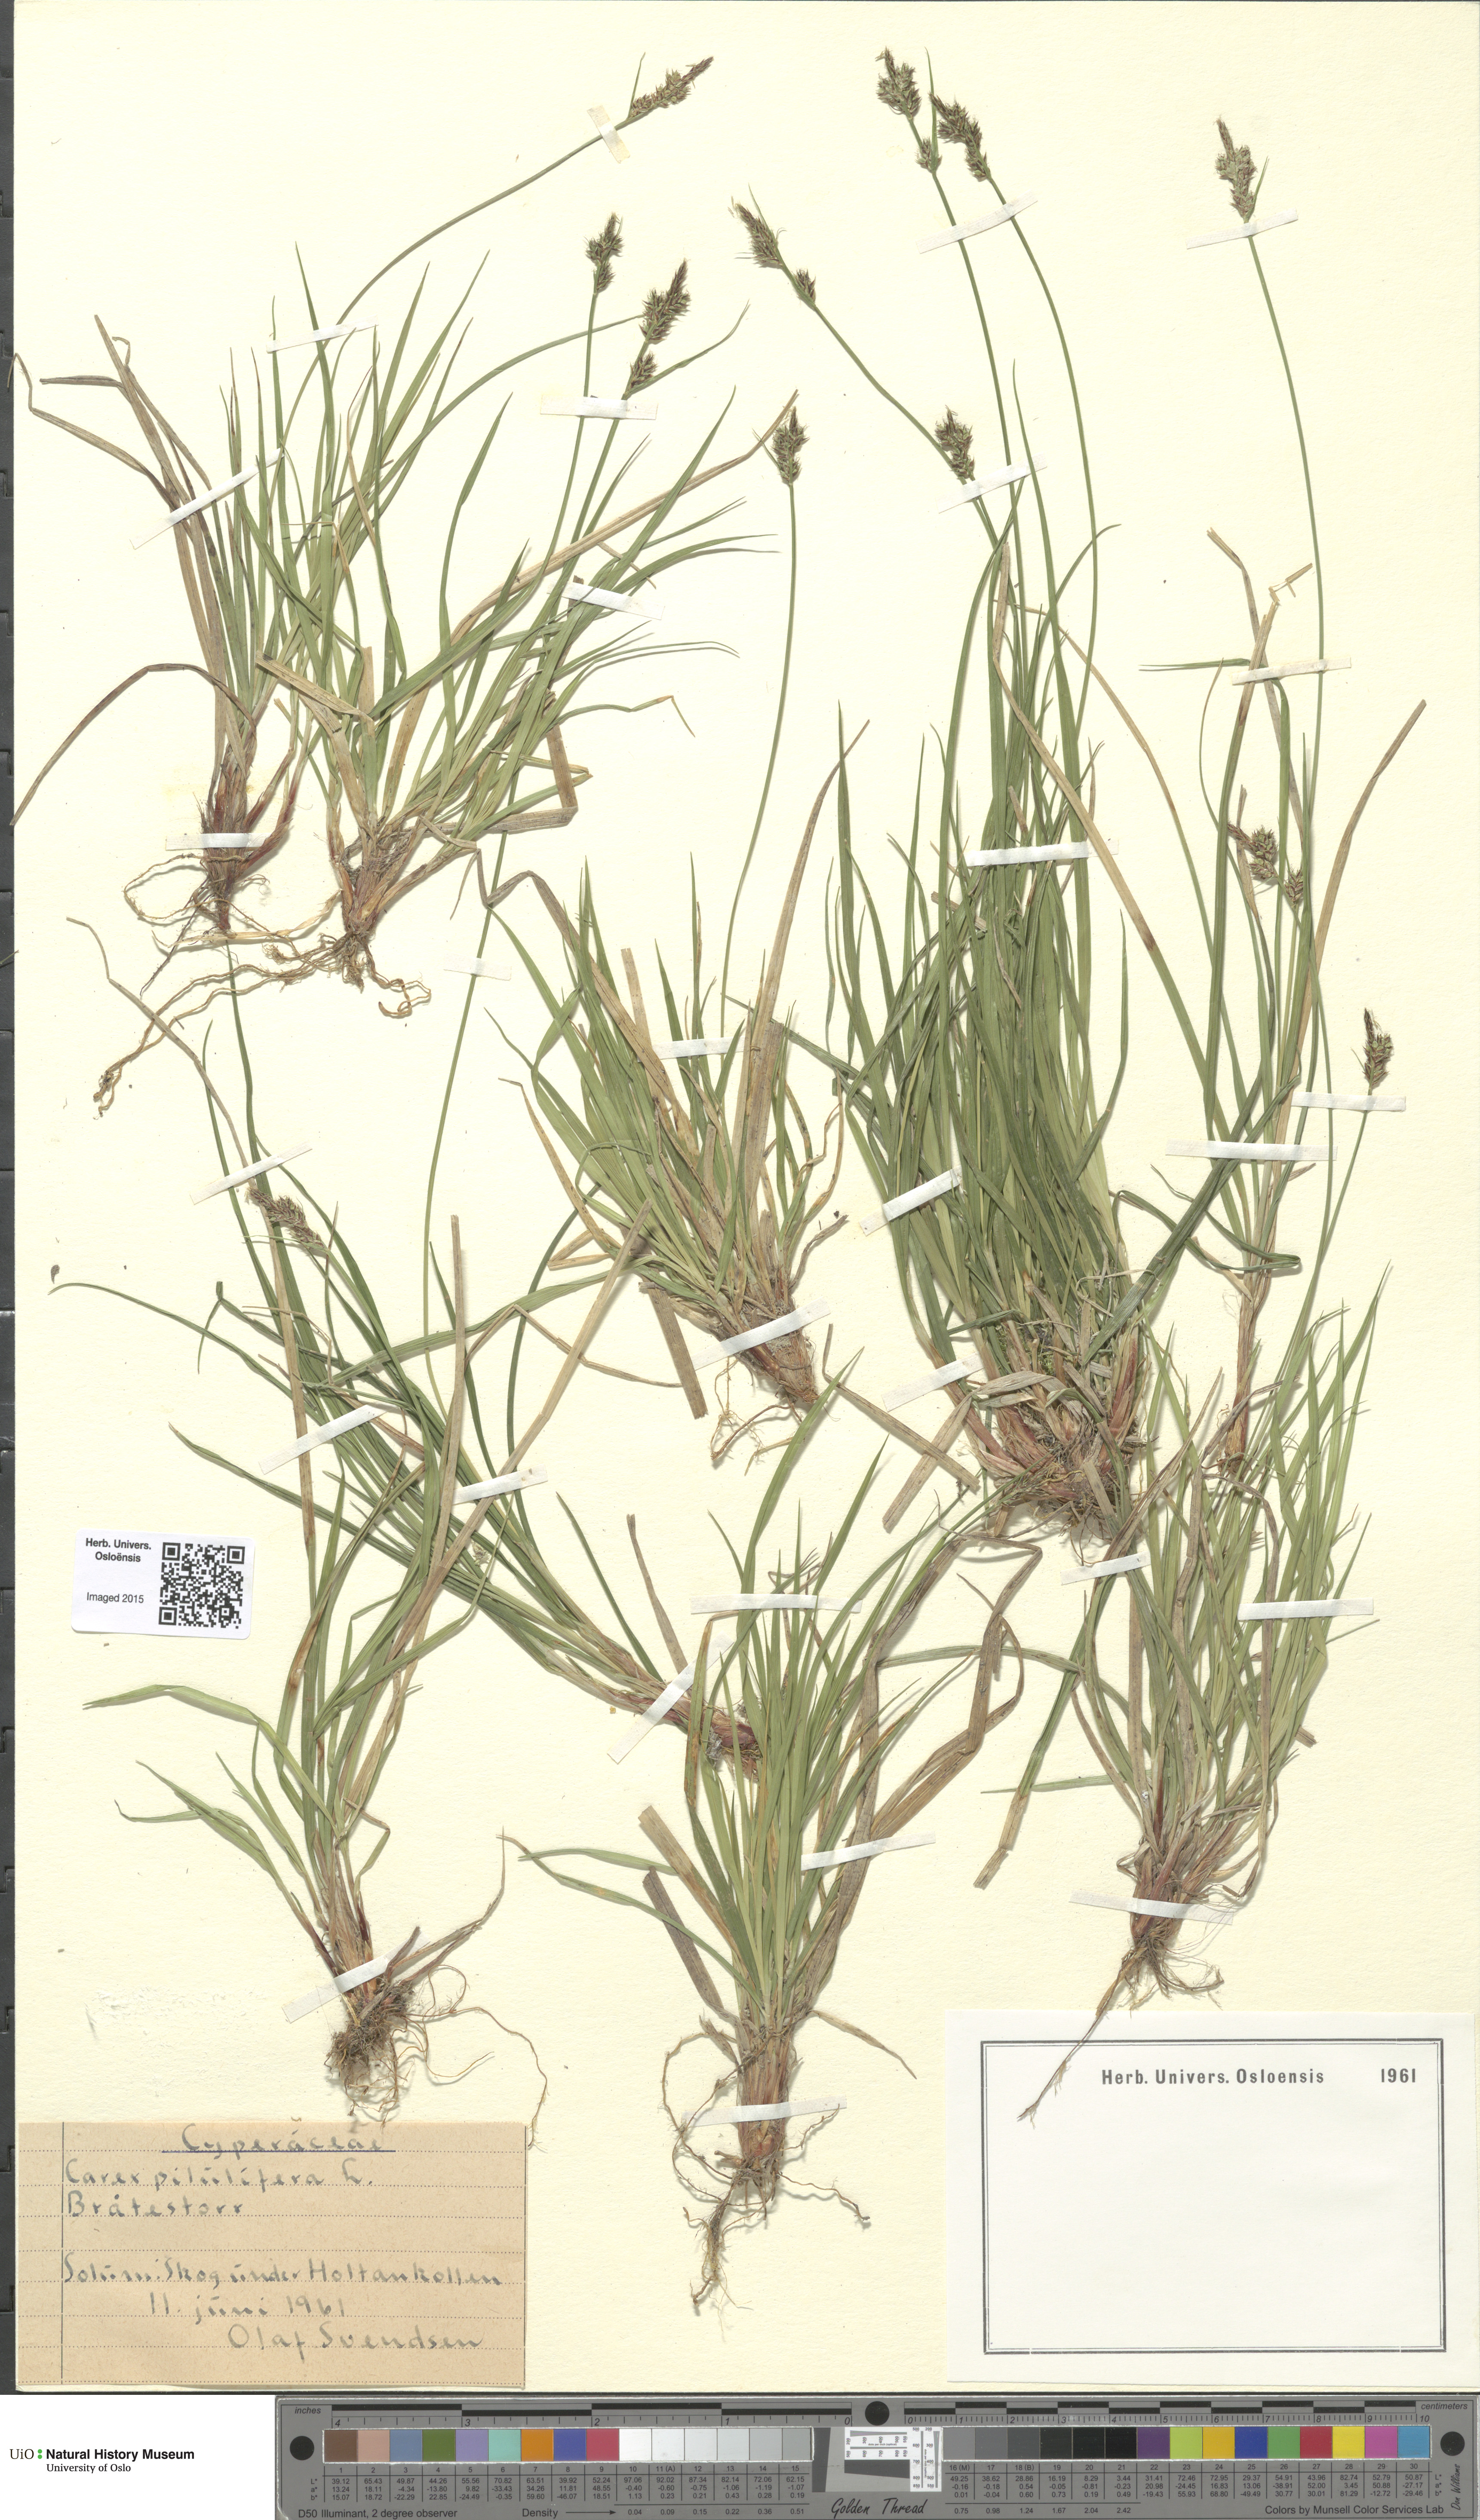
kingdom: Plantae
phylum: Tracheophyta
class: Liliopsida
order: Poales
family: Cyperaceae
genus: Carex
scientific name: Carex pilulifera
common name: Pill sedge
